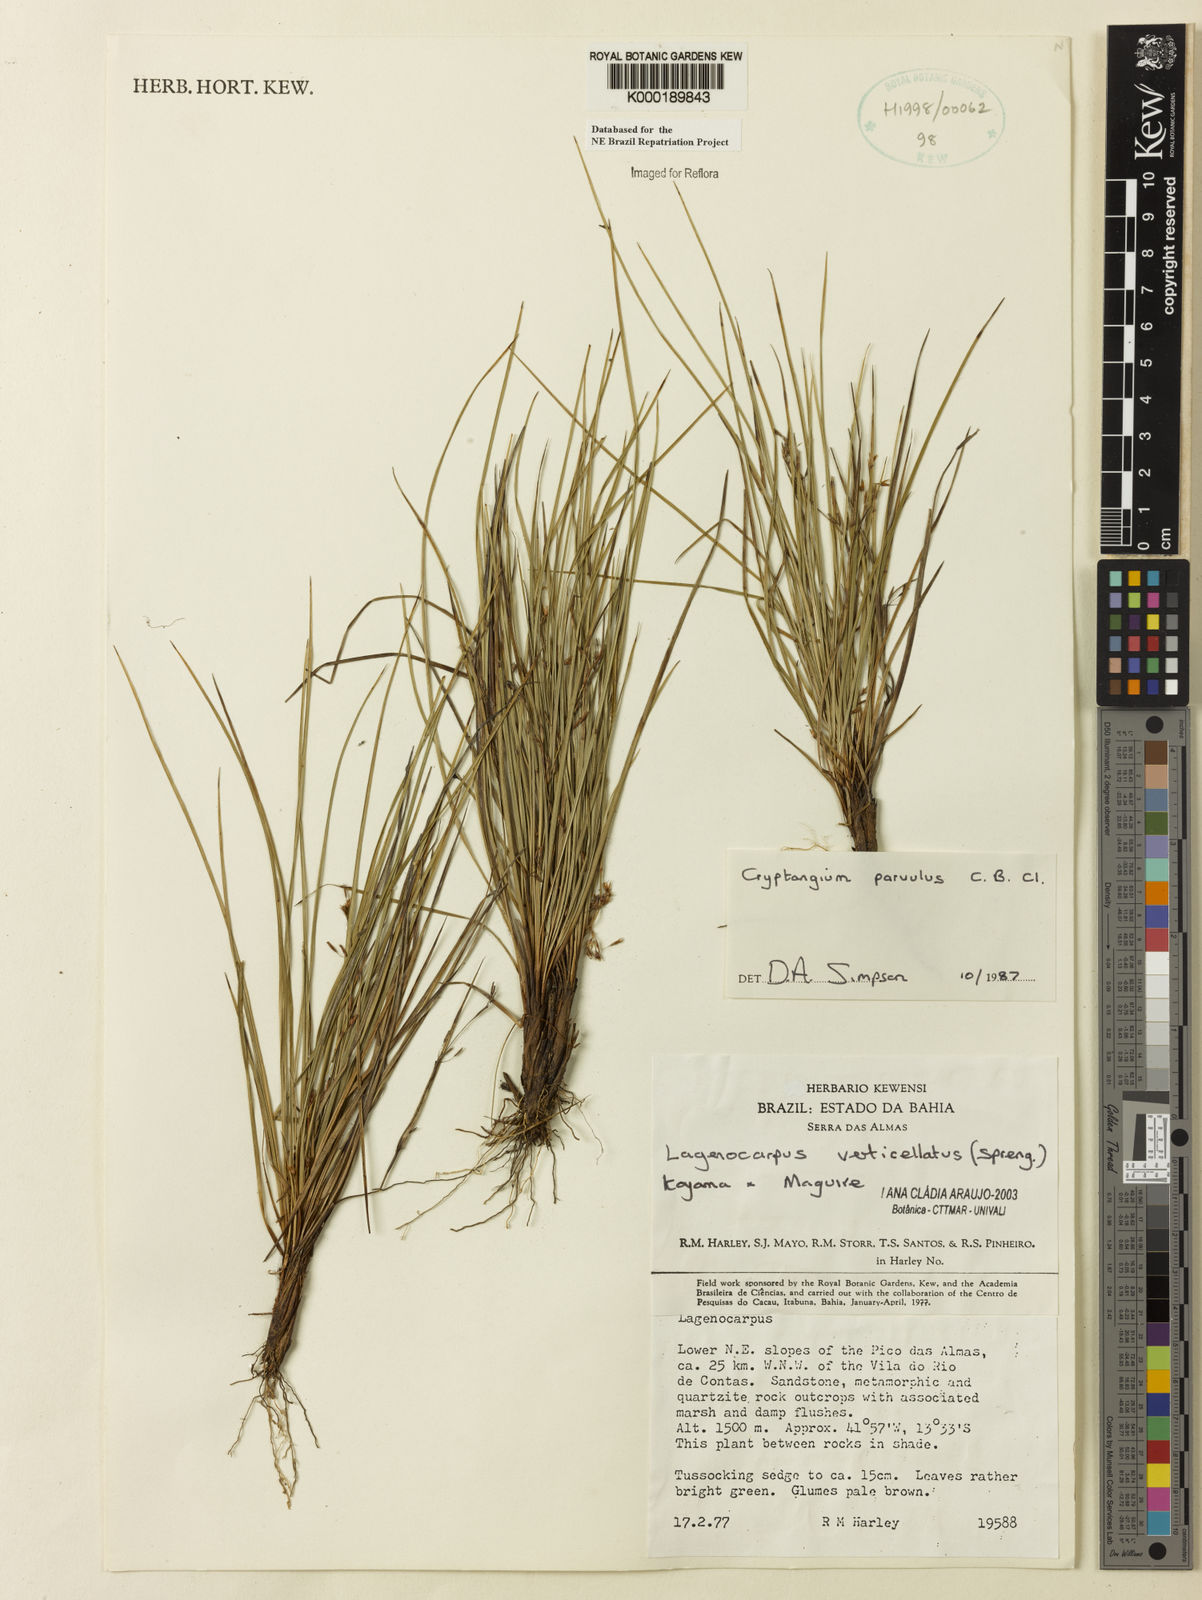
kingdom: Plantae
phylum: Tracheophyta
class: Liliopsida
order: Poales
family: Cyperaceae
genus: Cryptangium
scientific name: Cryptangium verticillatum
